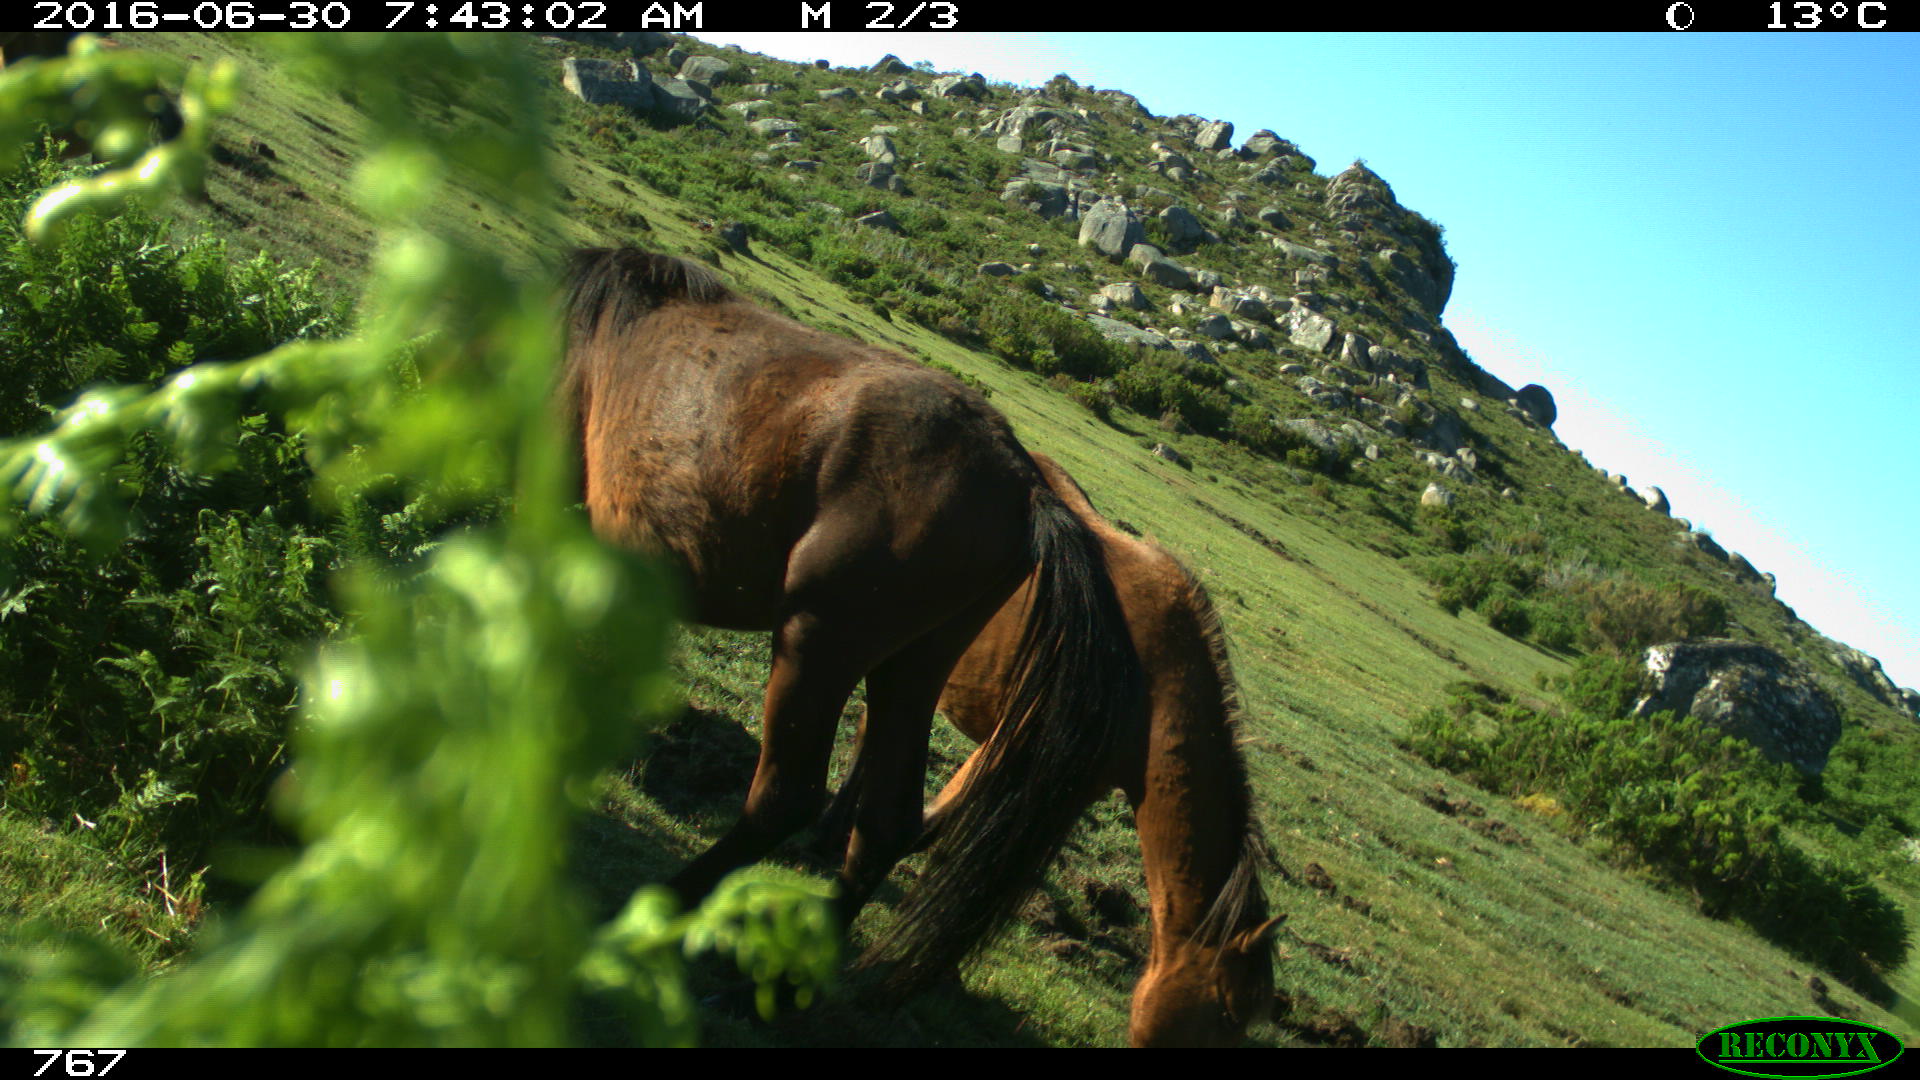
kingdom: Animalia
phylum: Chordata
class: Mammalia
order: Perissodactyla
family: Equidae
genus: Equus
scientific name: Equus caballus
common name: Horse
